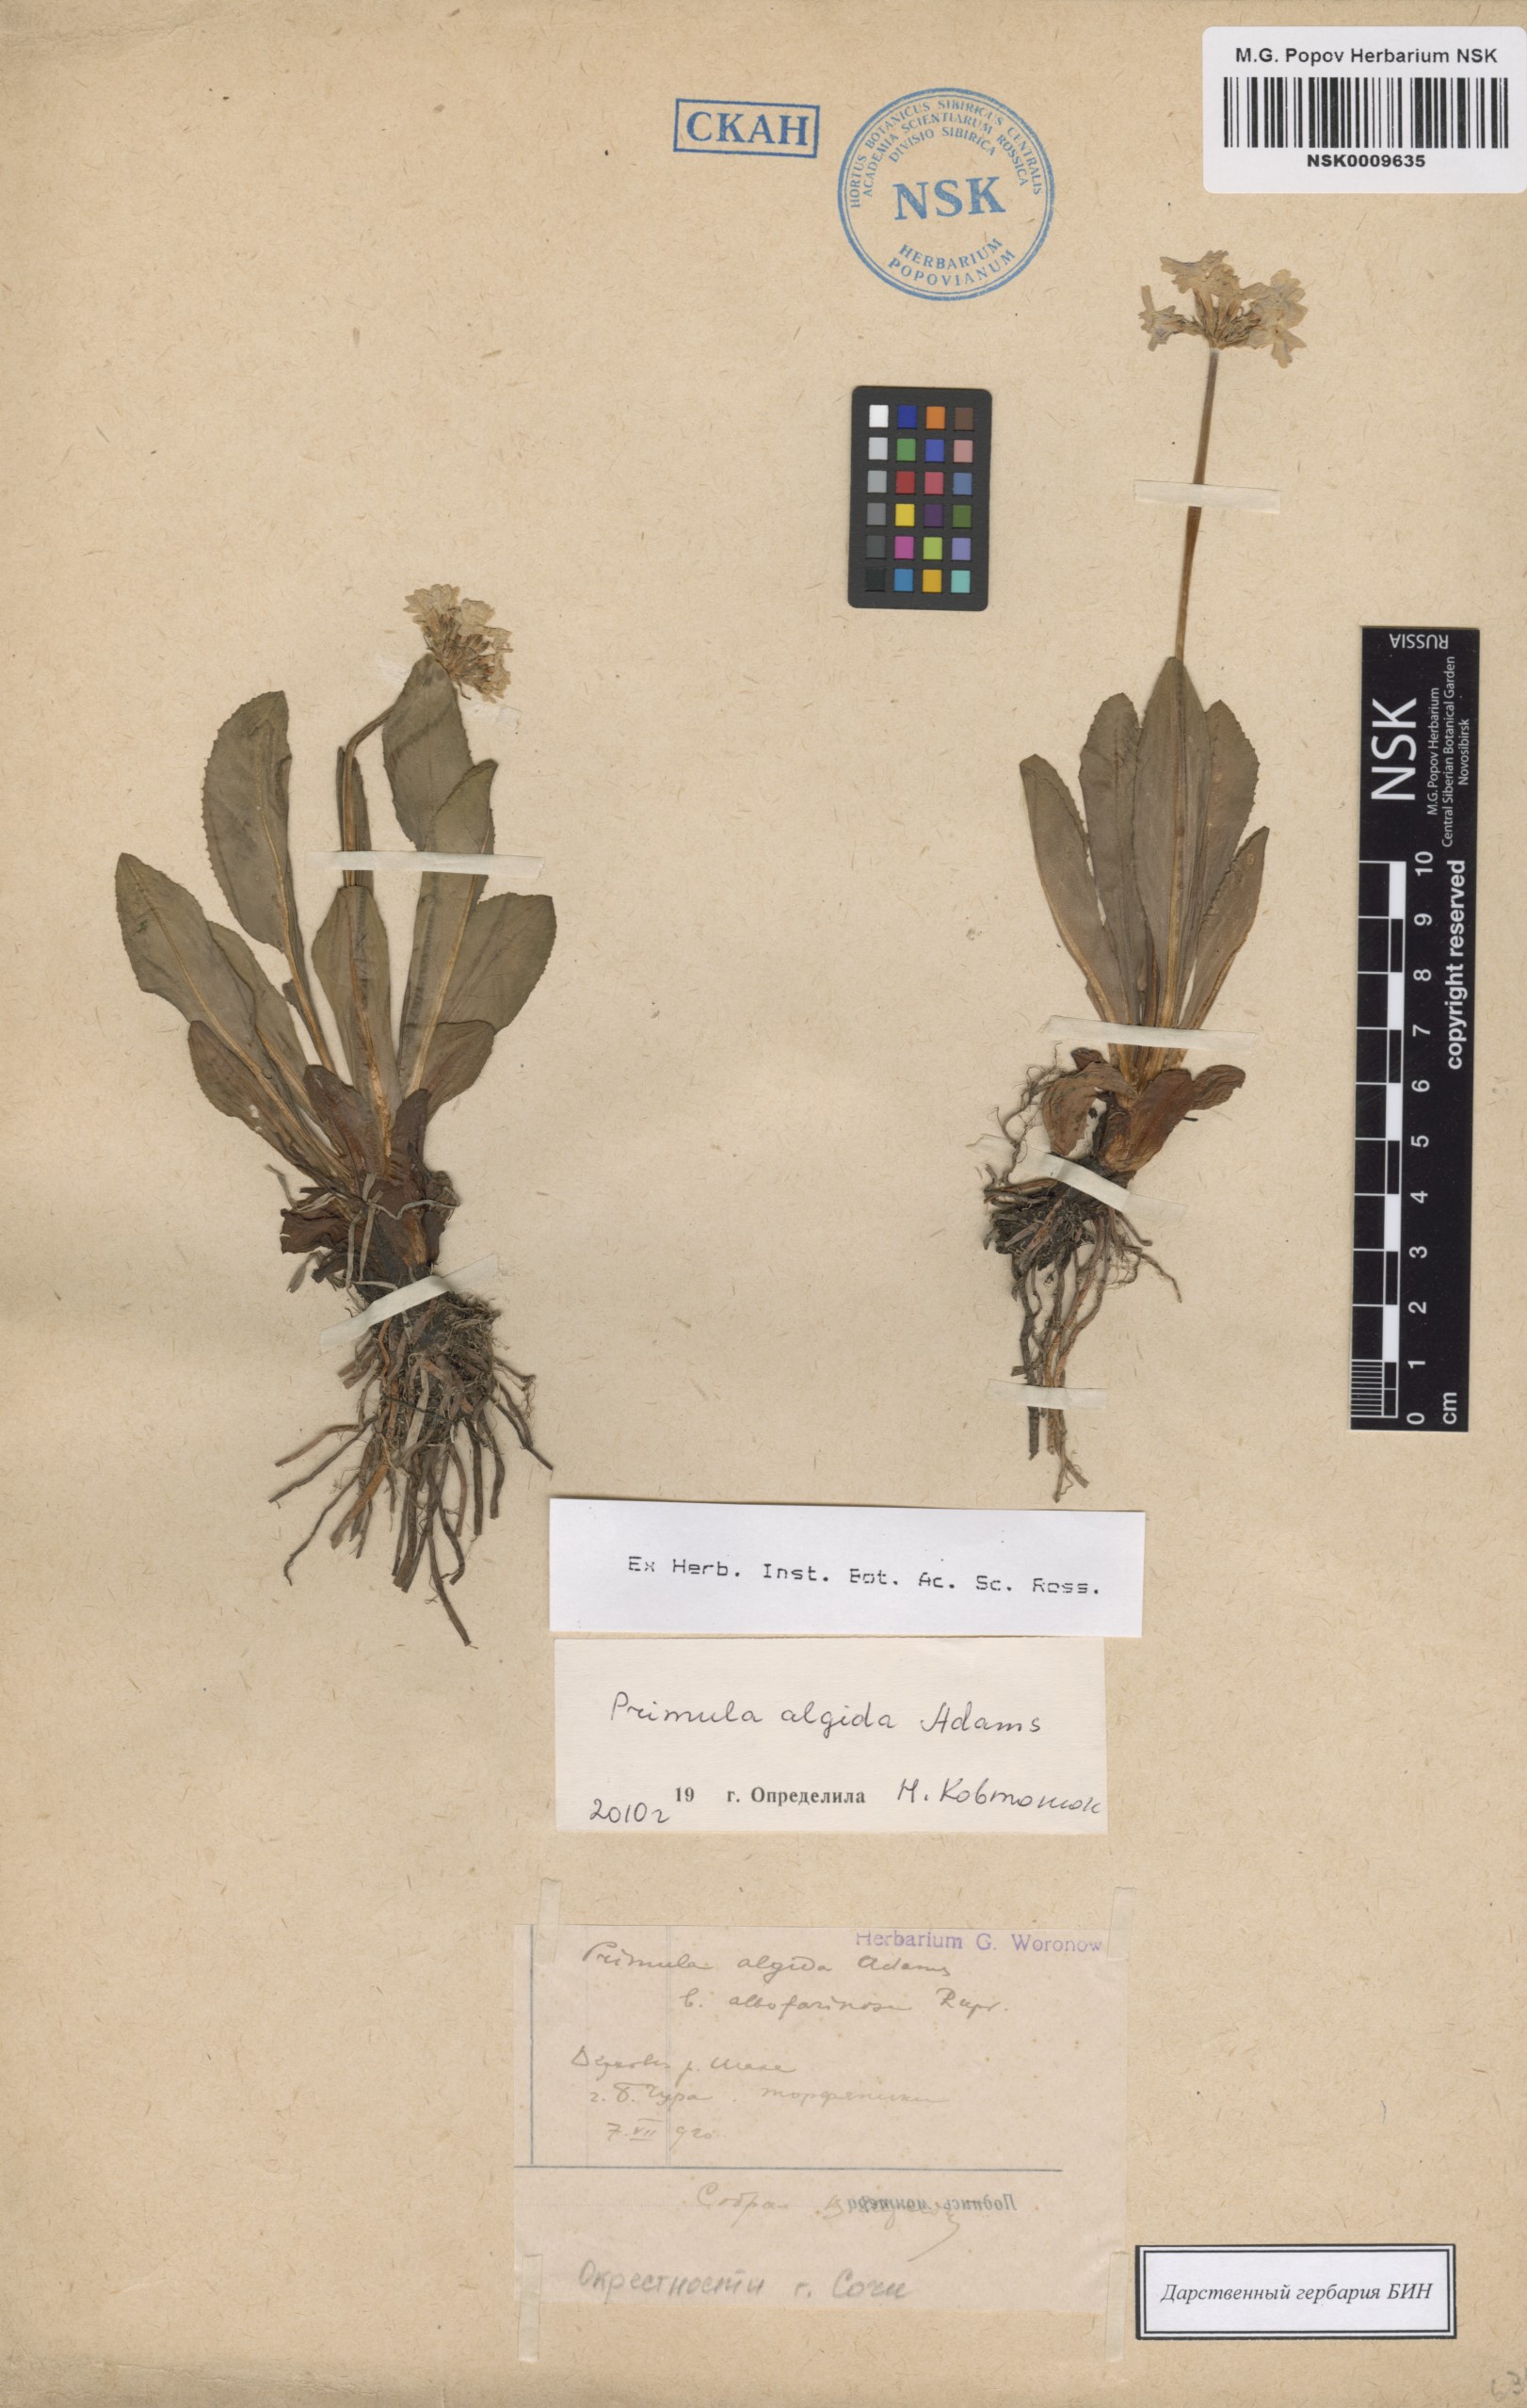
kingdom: Plantae
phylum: Tracheophyta
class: Magnoliopsida
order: Ericales
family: Primulaceae
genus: Primula
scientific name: Primula algida
